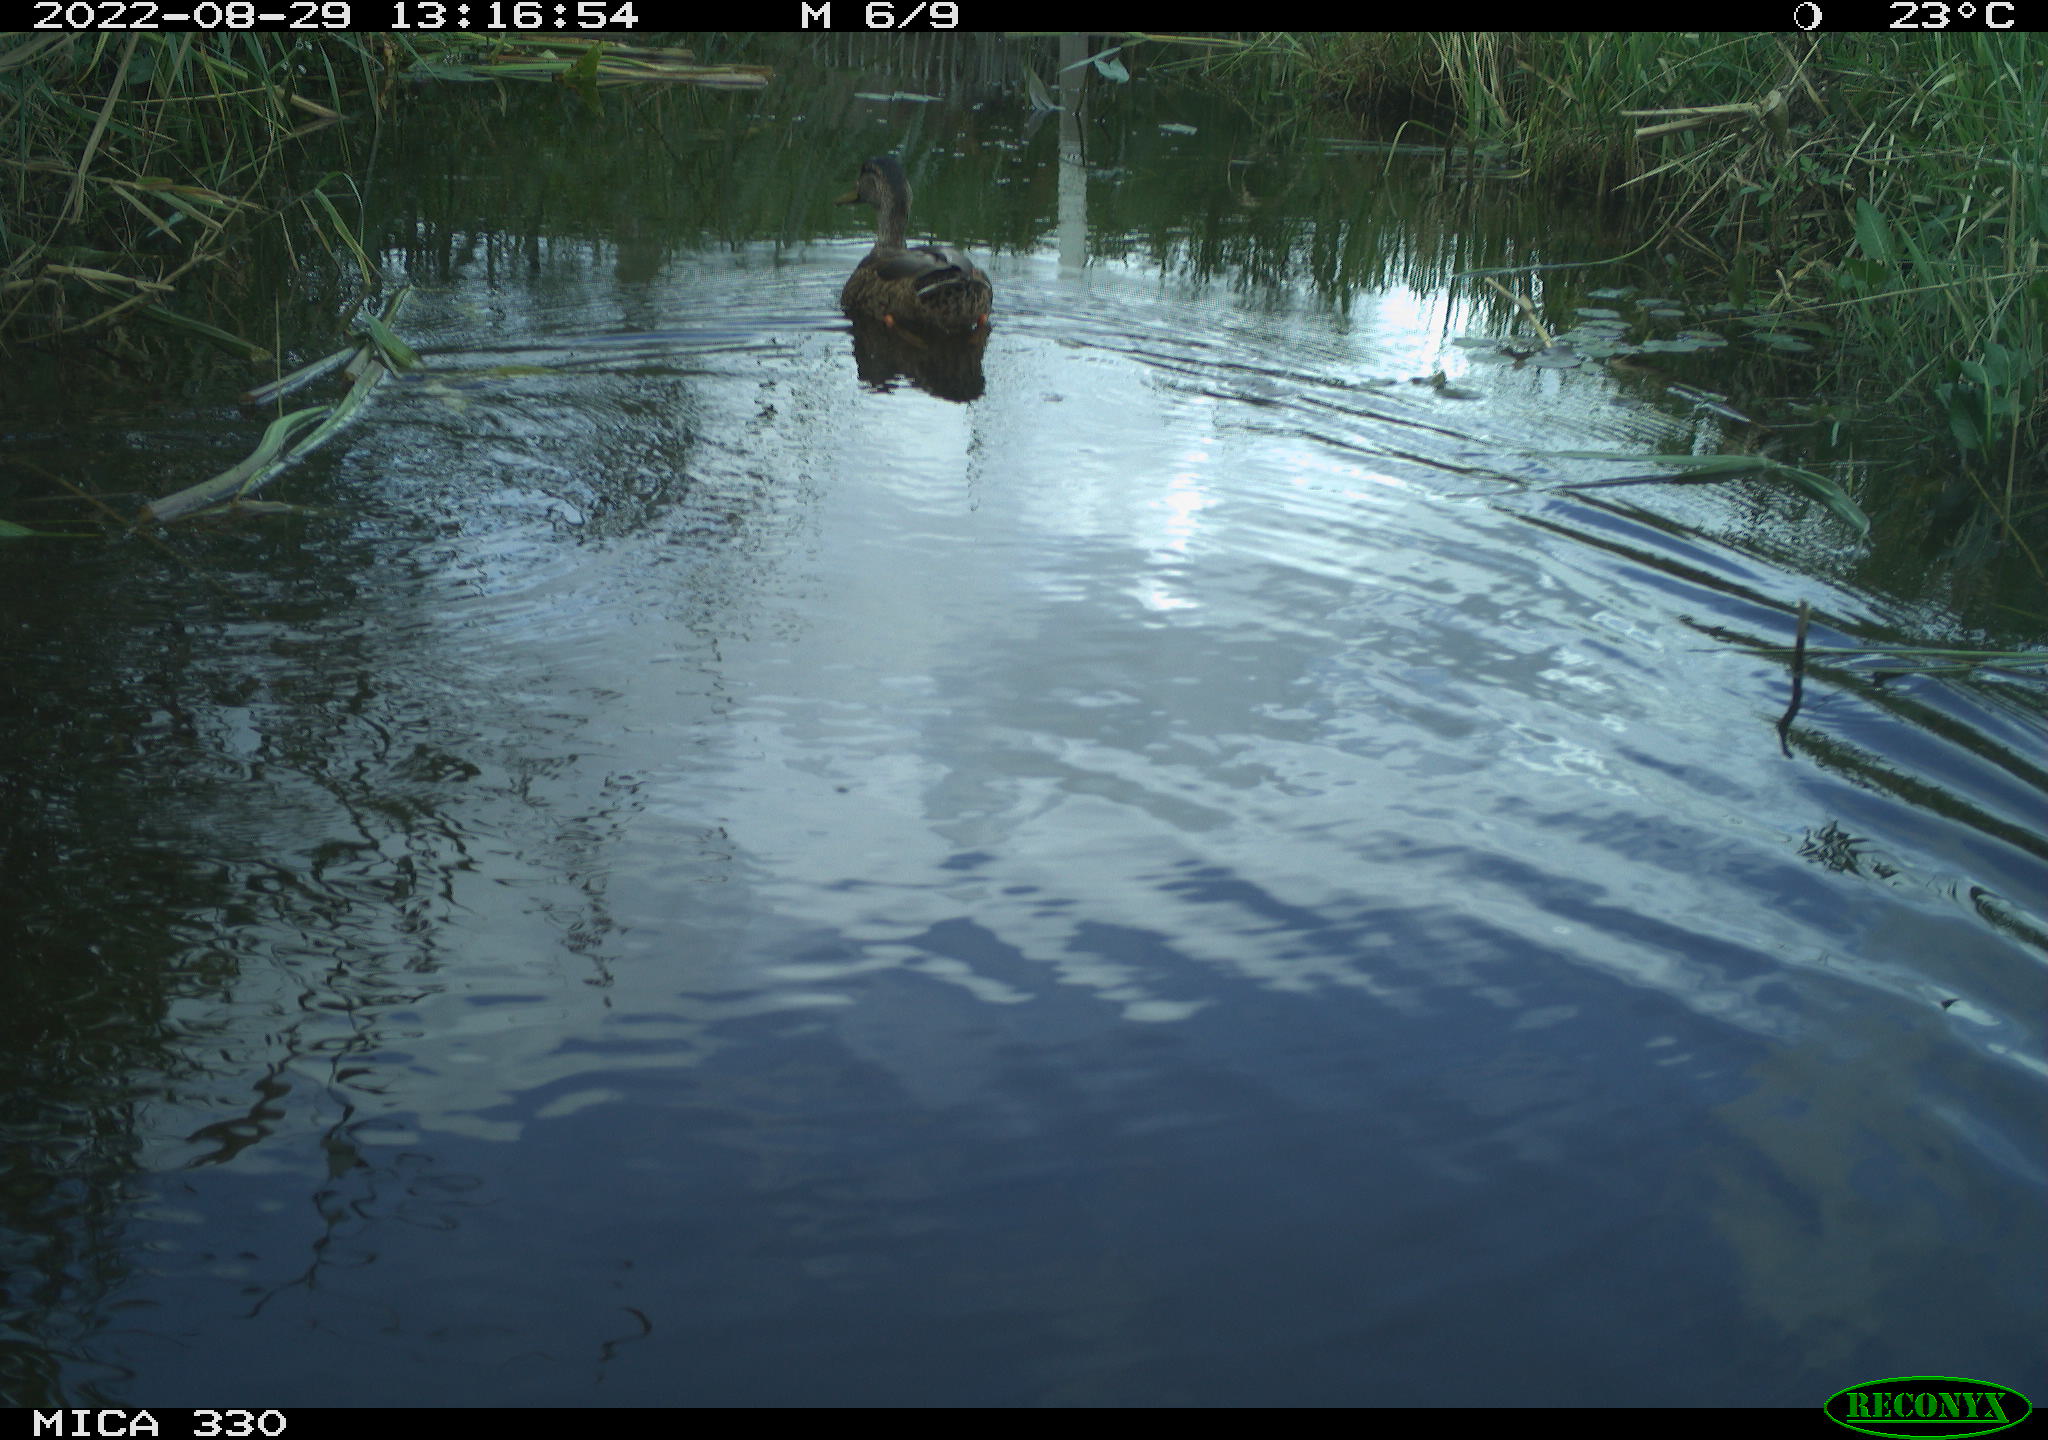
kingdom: Animalia
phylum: Chordata
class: Aves
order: Anseriformes
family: Anatidae
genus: Anas
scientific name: Anas platyrhynchos
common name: Mallard
